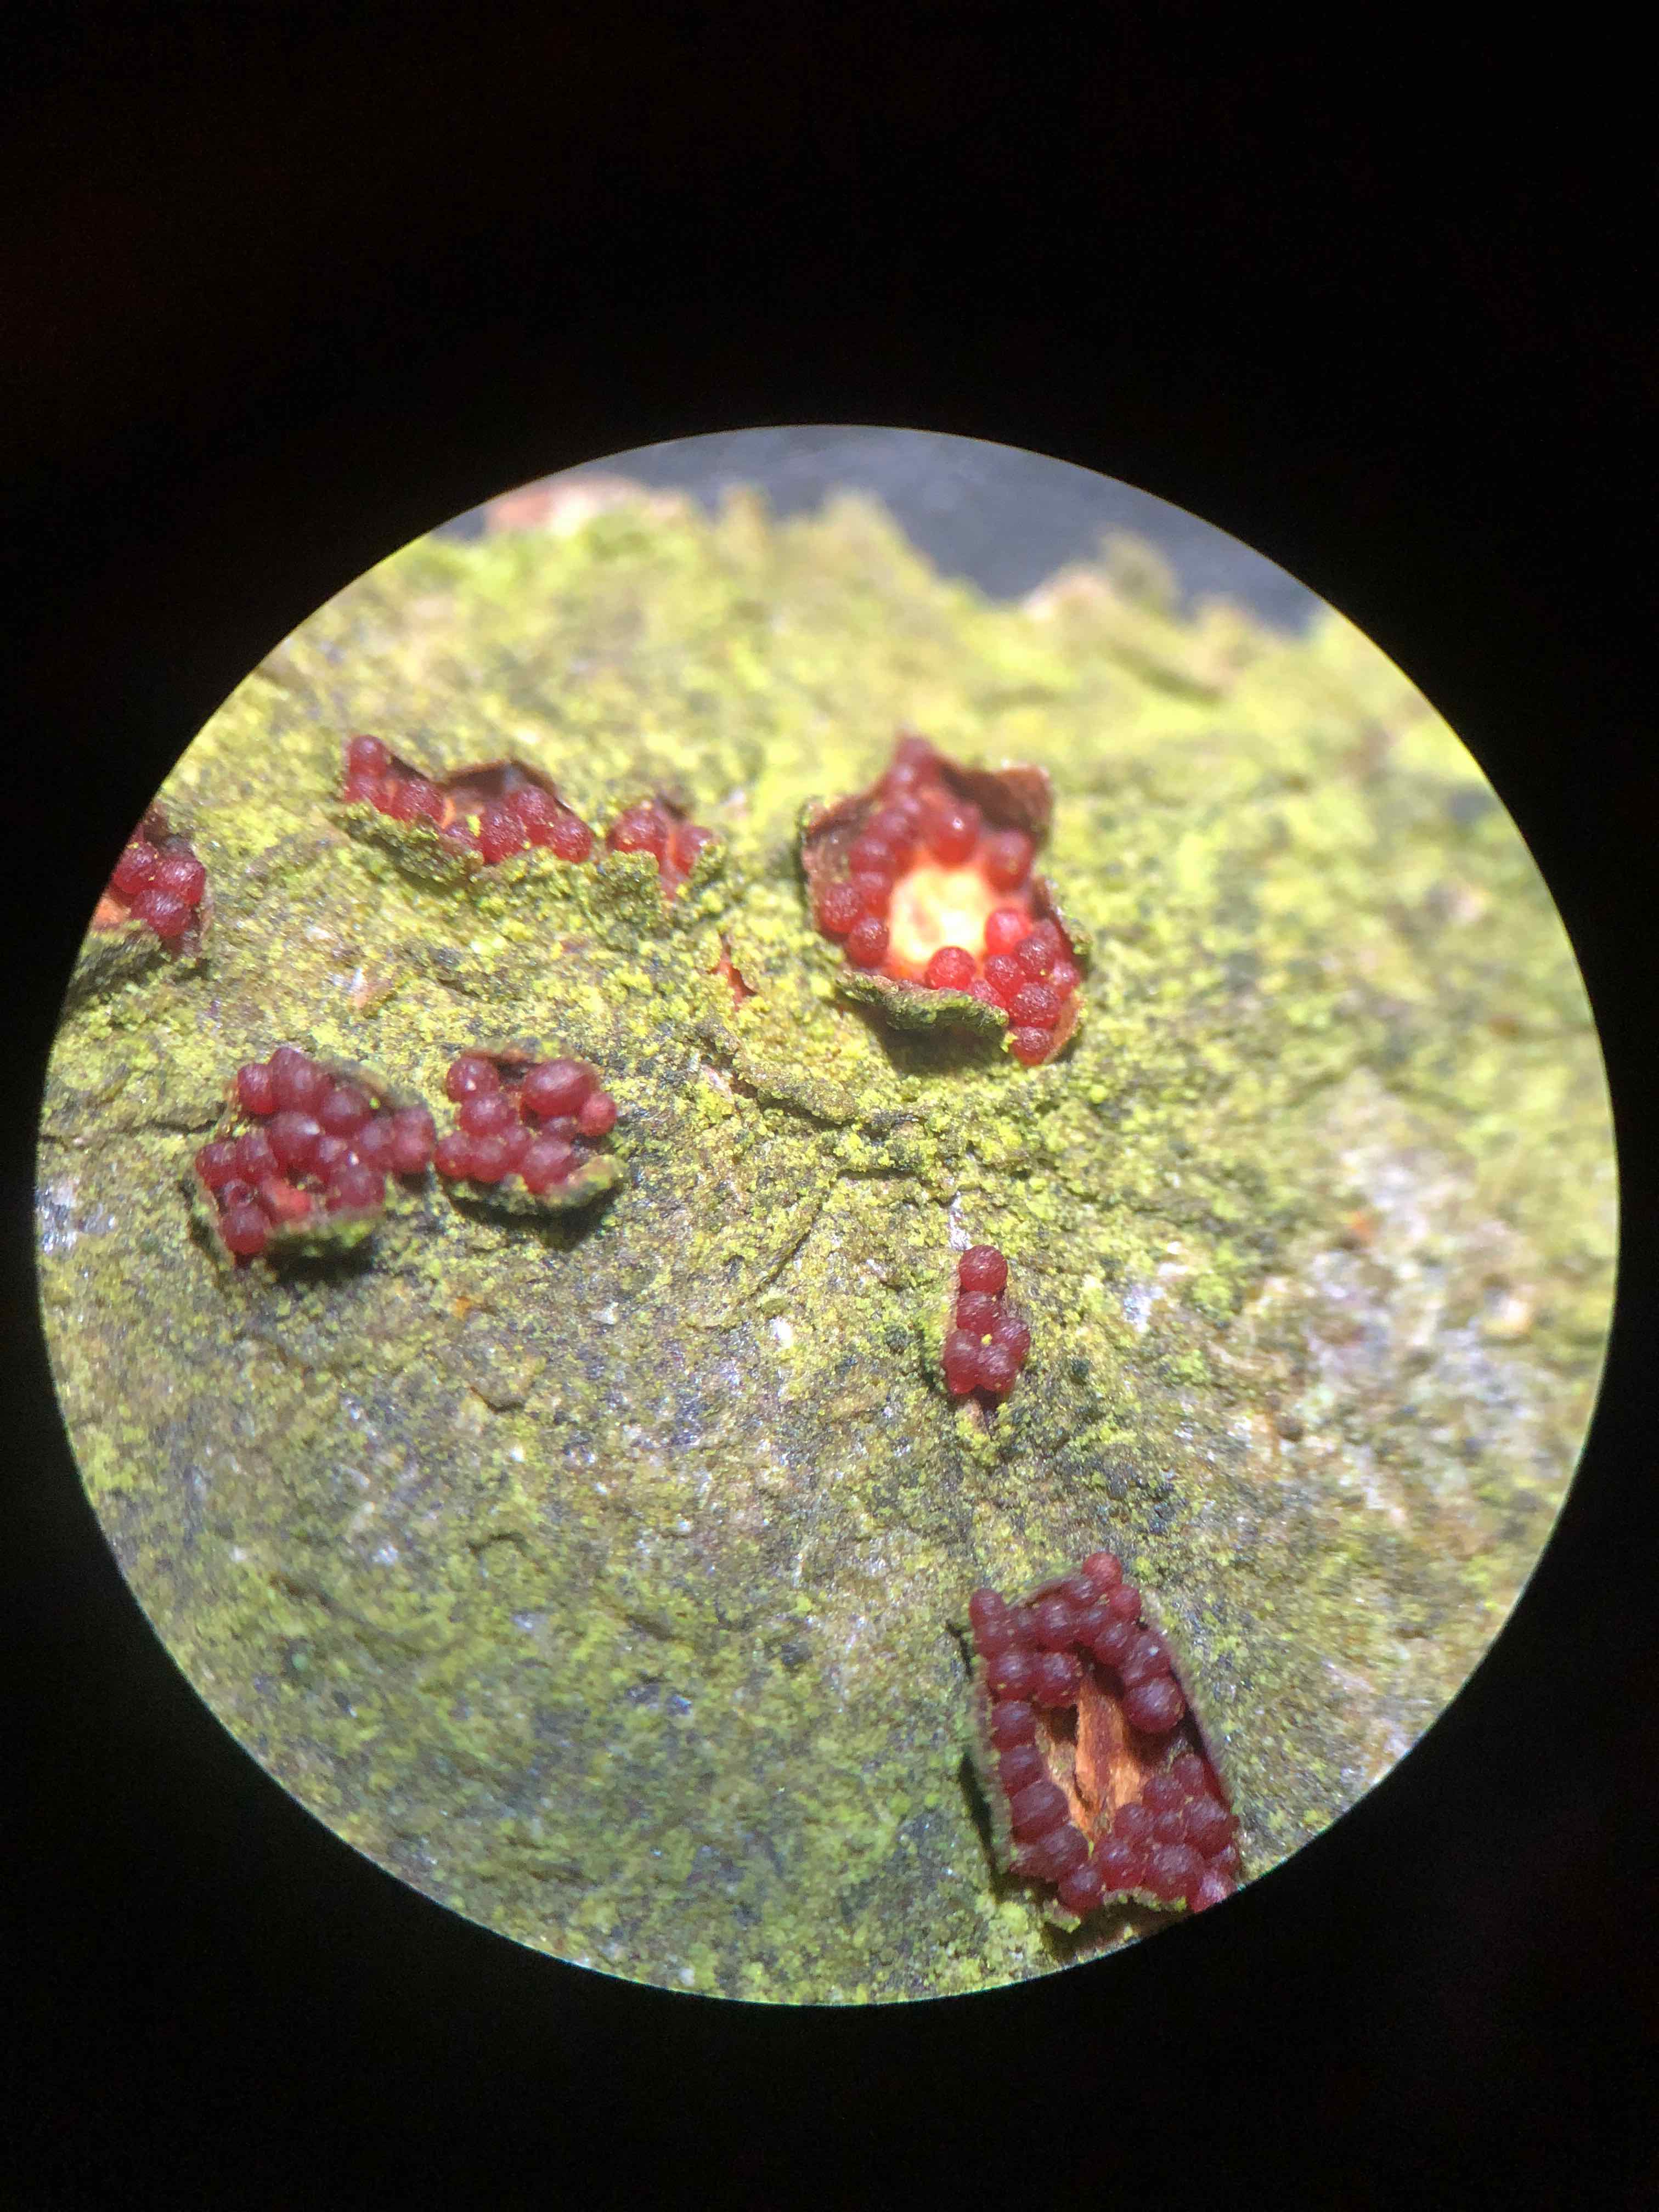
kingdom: Fungi
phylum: Ascomycota
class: Sordariomycetes
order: Hypocreales
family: Nectriaceae
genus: Neonectria
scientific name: Neonectria coccinea
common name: bøgebark-cinnobersvamp
